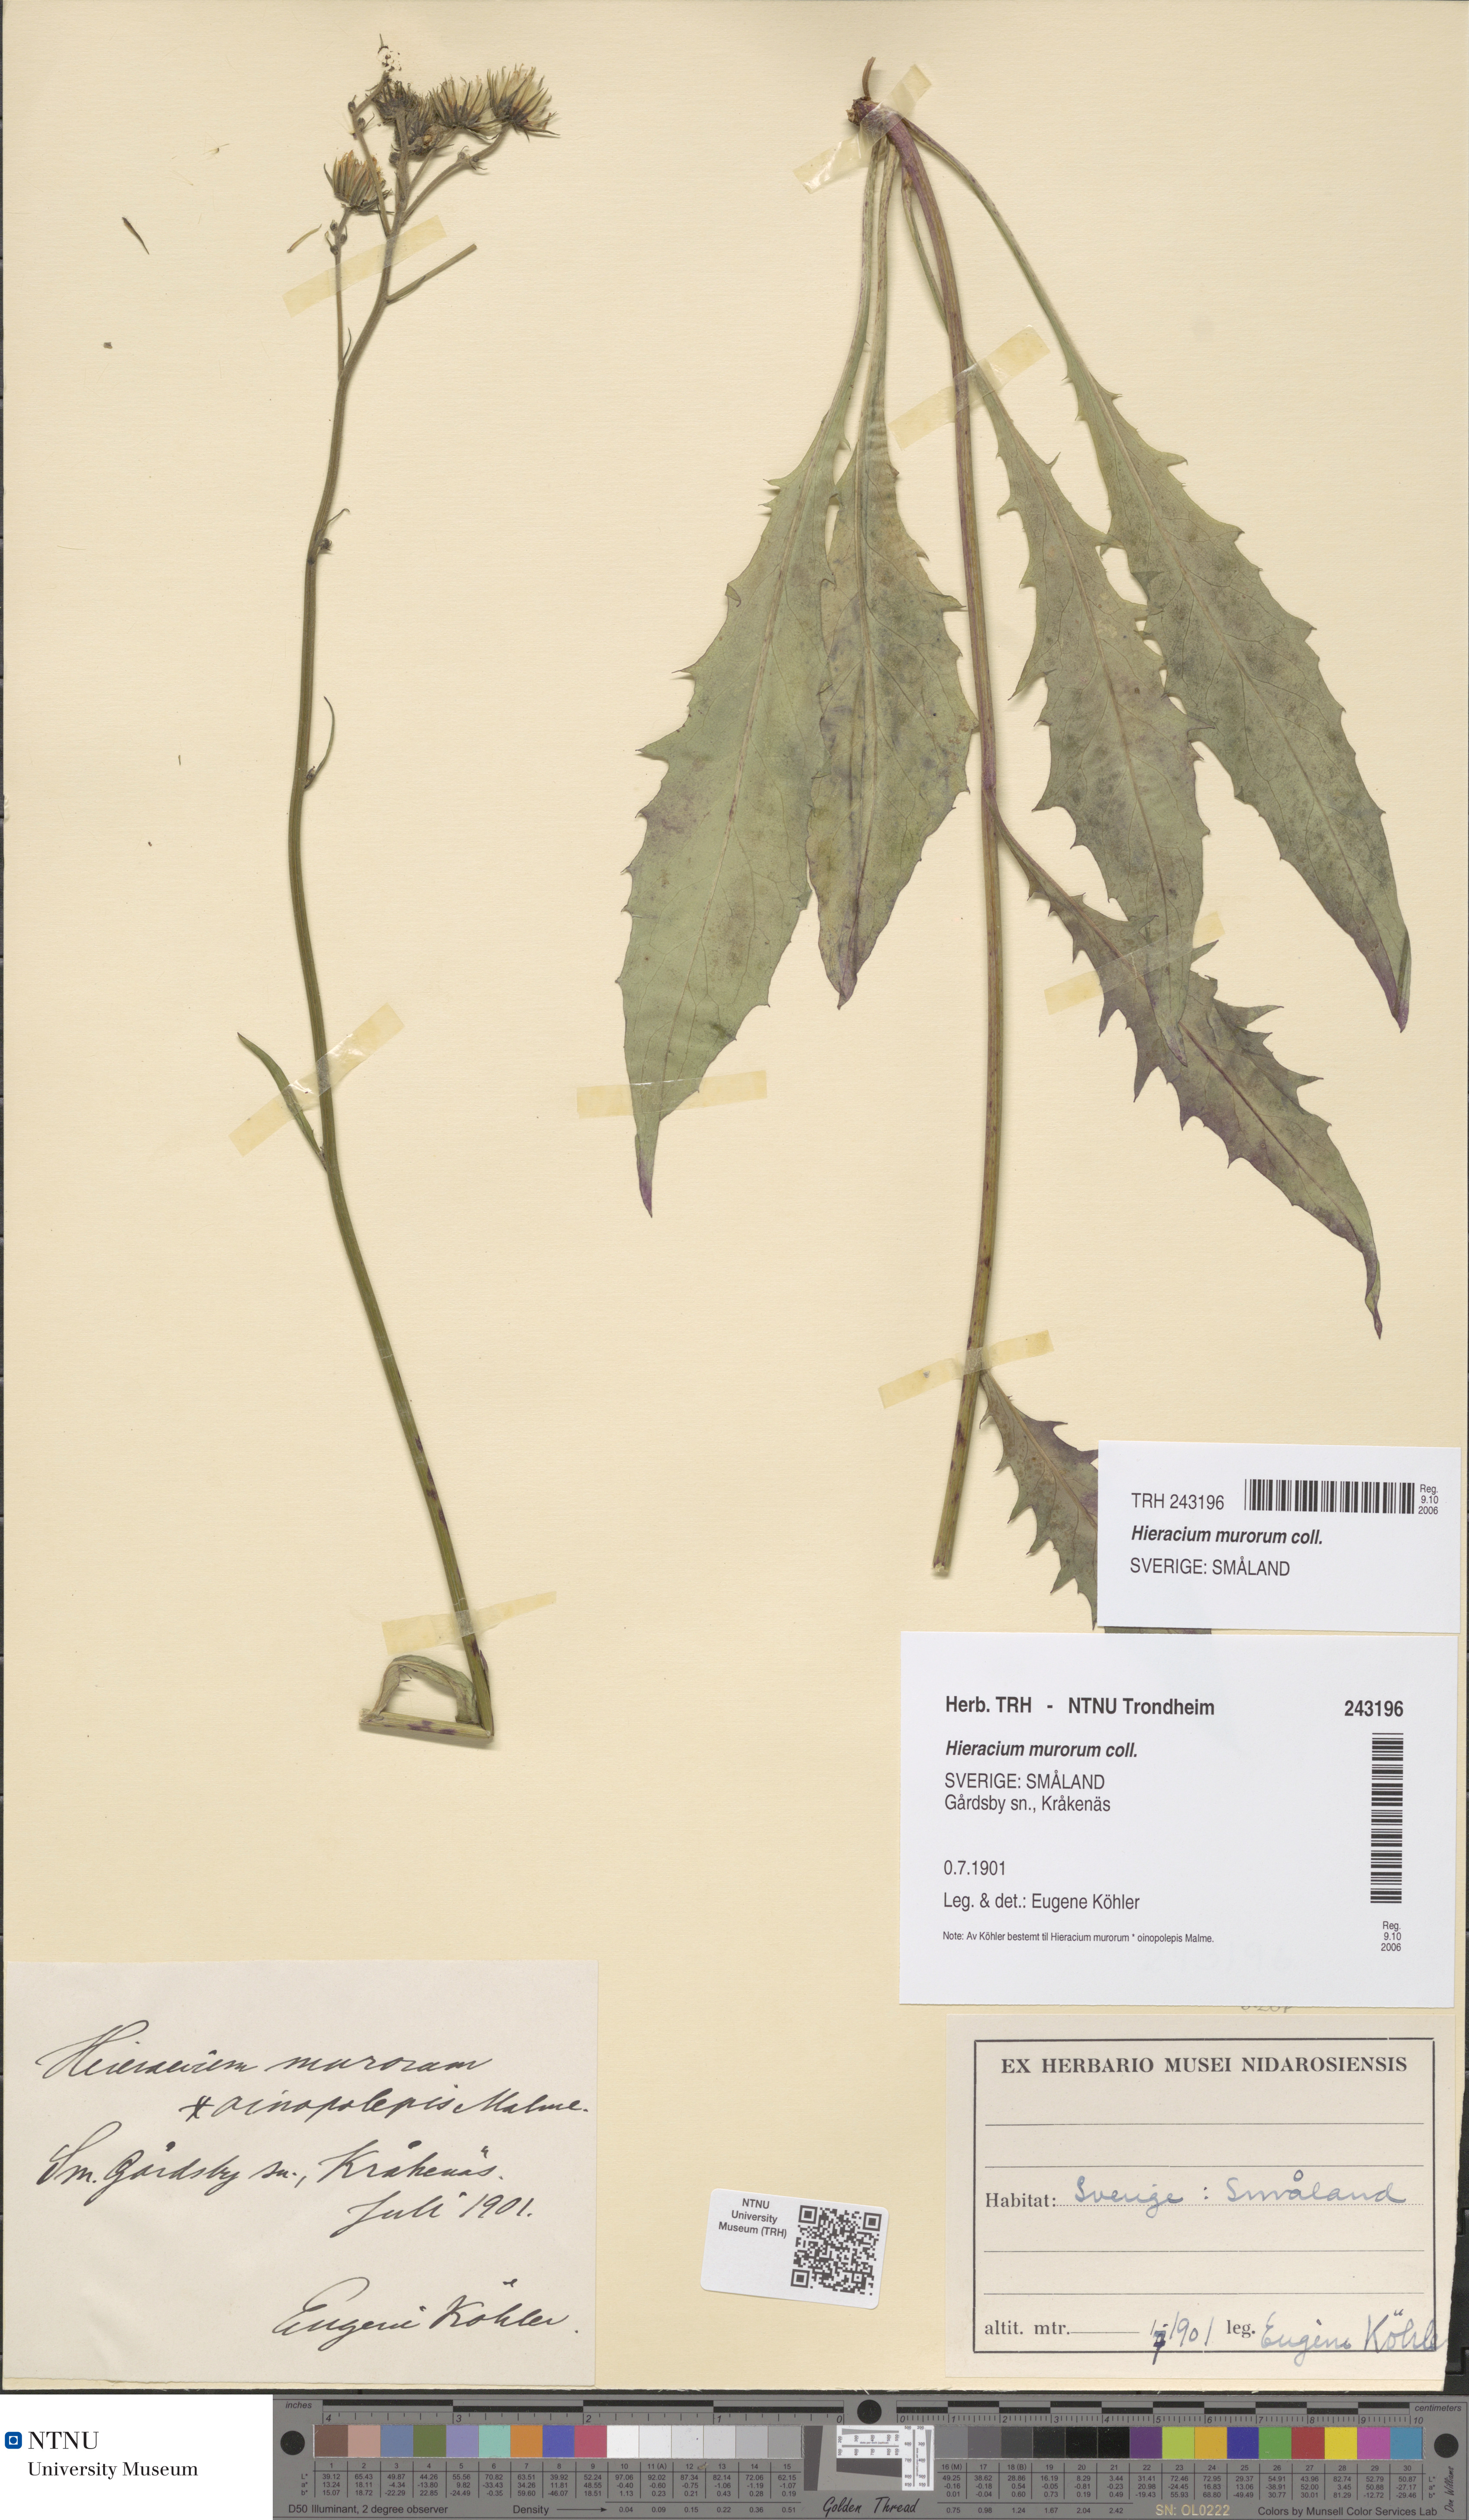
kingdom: Plantae
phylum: Tracheophyta
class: Magnoliopsida
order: Asterales
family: Asteraceae
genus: Hieracium
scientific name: Hieracium murorum
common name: Wall hawkweed
